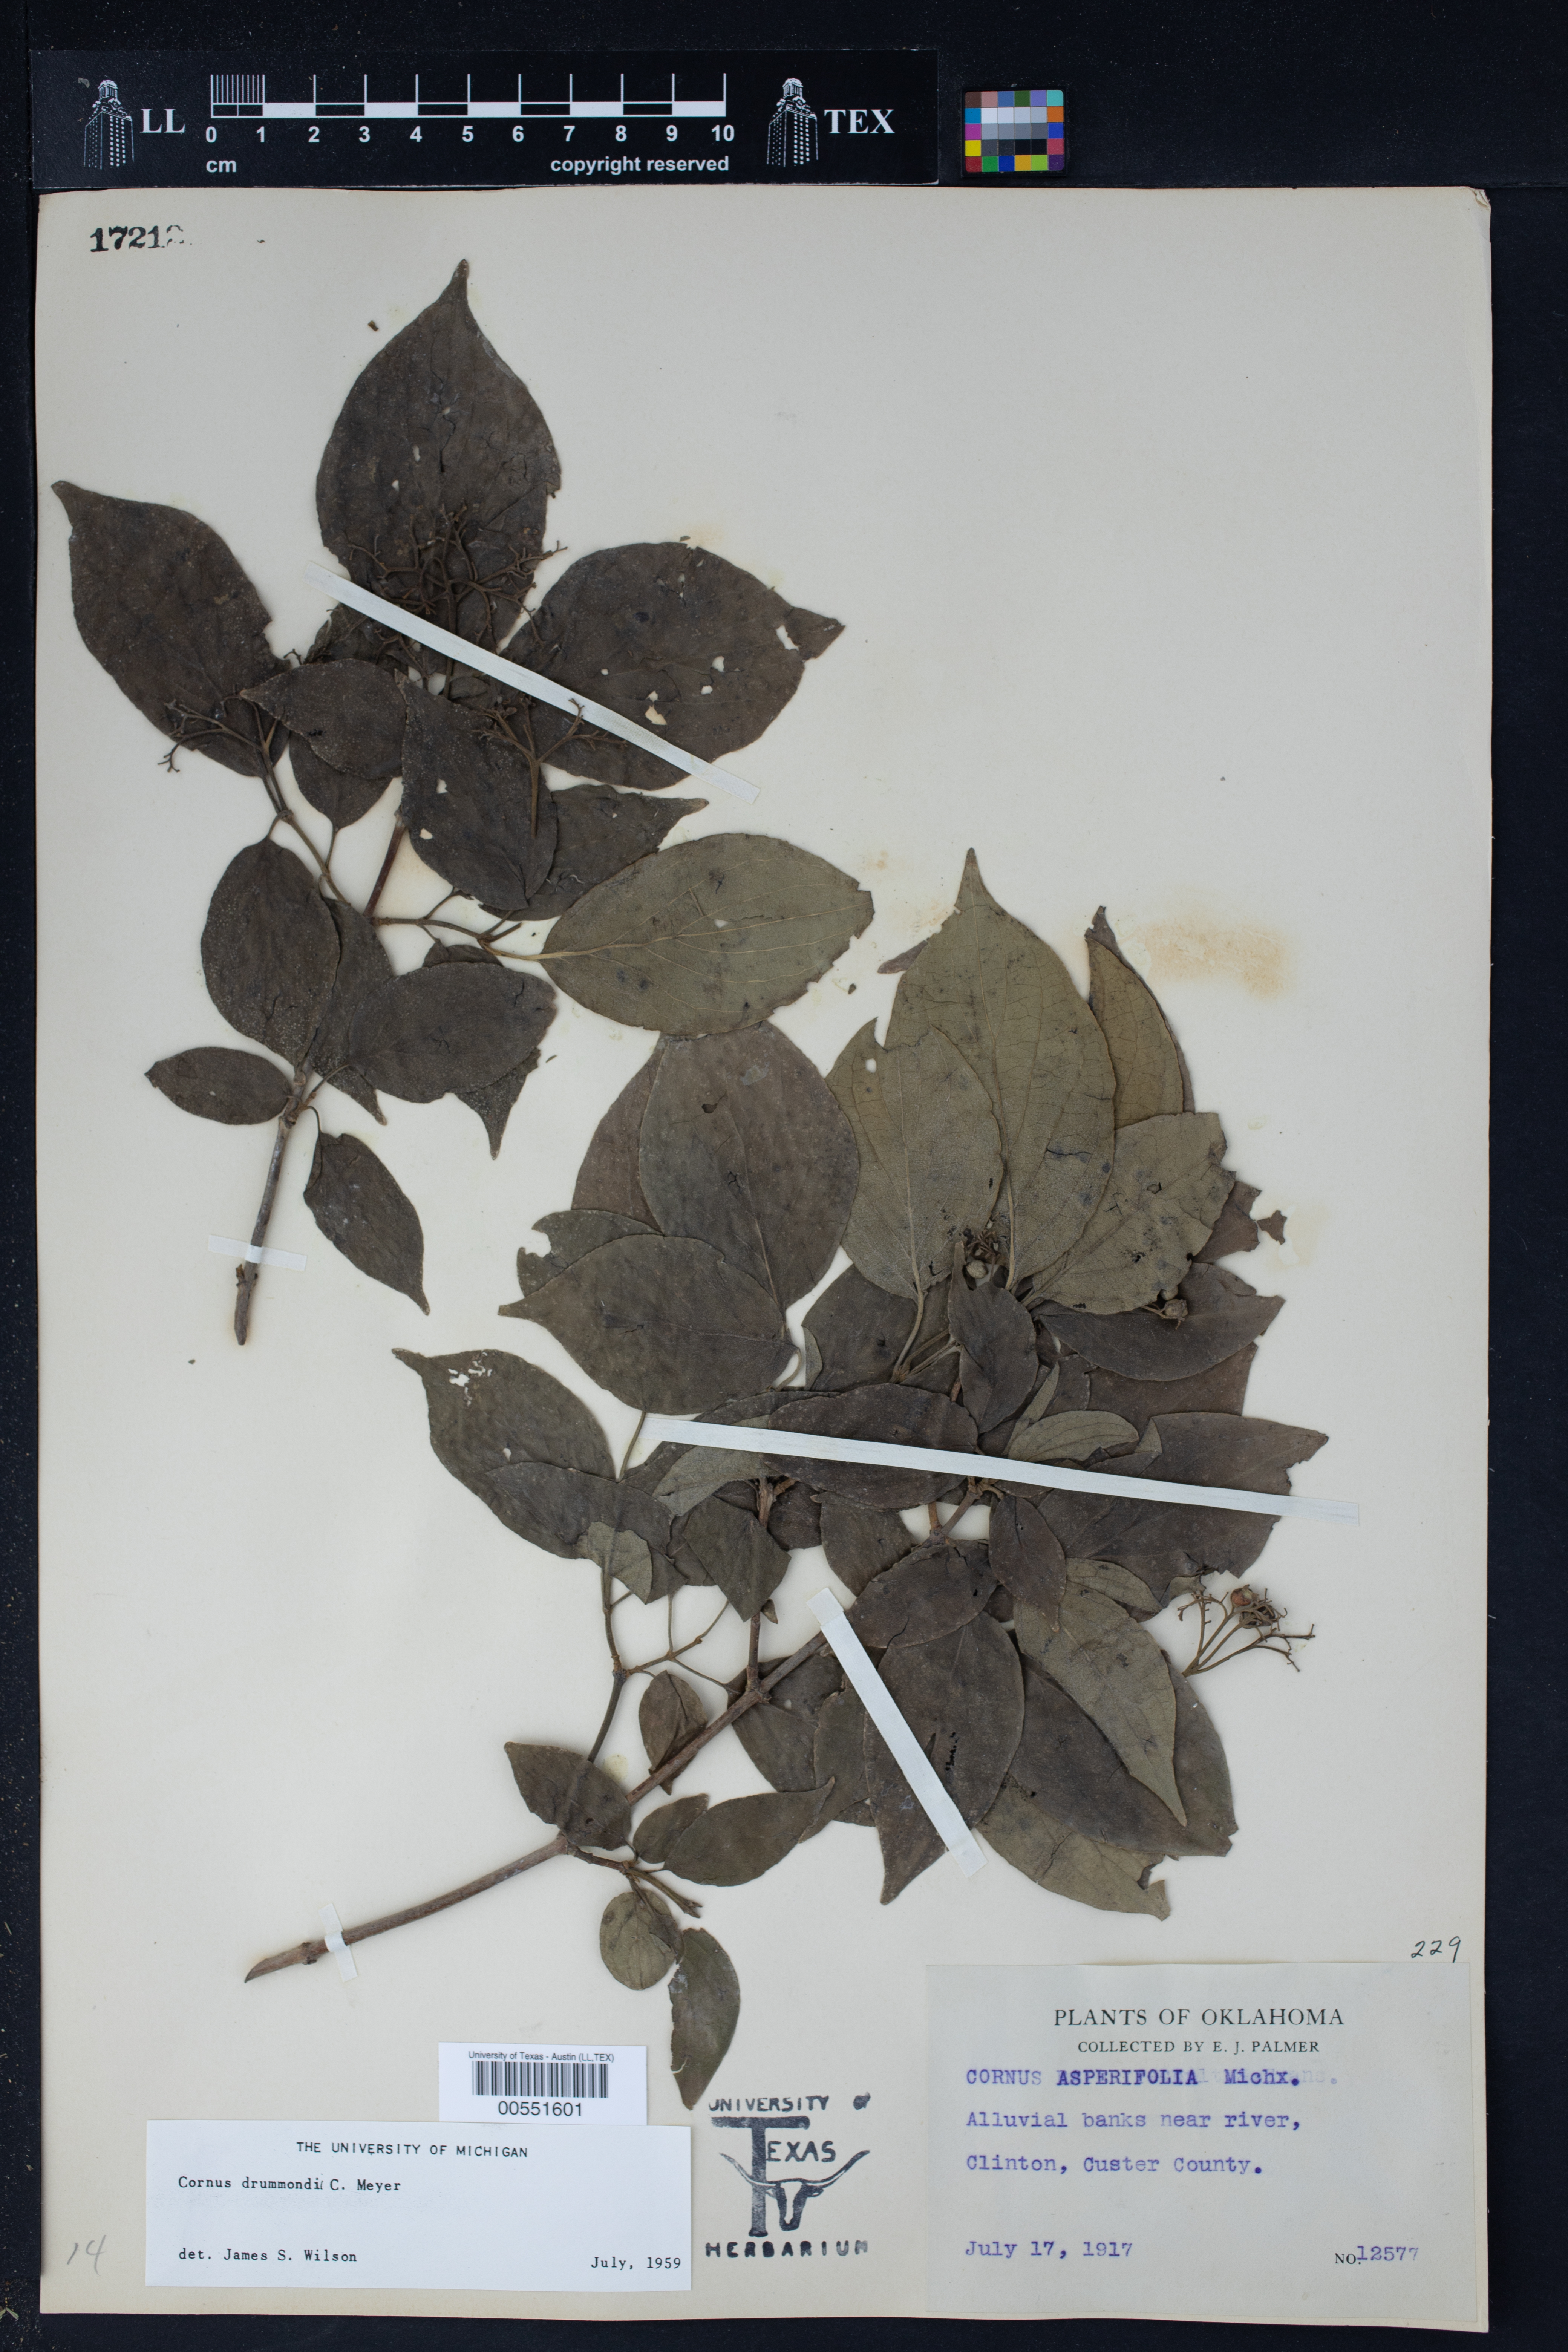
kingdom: Plantae
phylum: Tracheophyta
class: Magnoliopsida
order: Cornales
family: Cornaceae
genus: Cornus
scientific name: Cornus drummondii
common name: Rough-leaf dogwood
